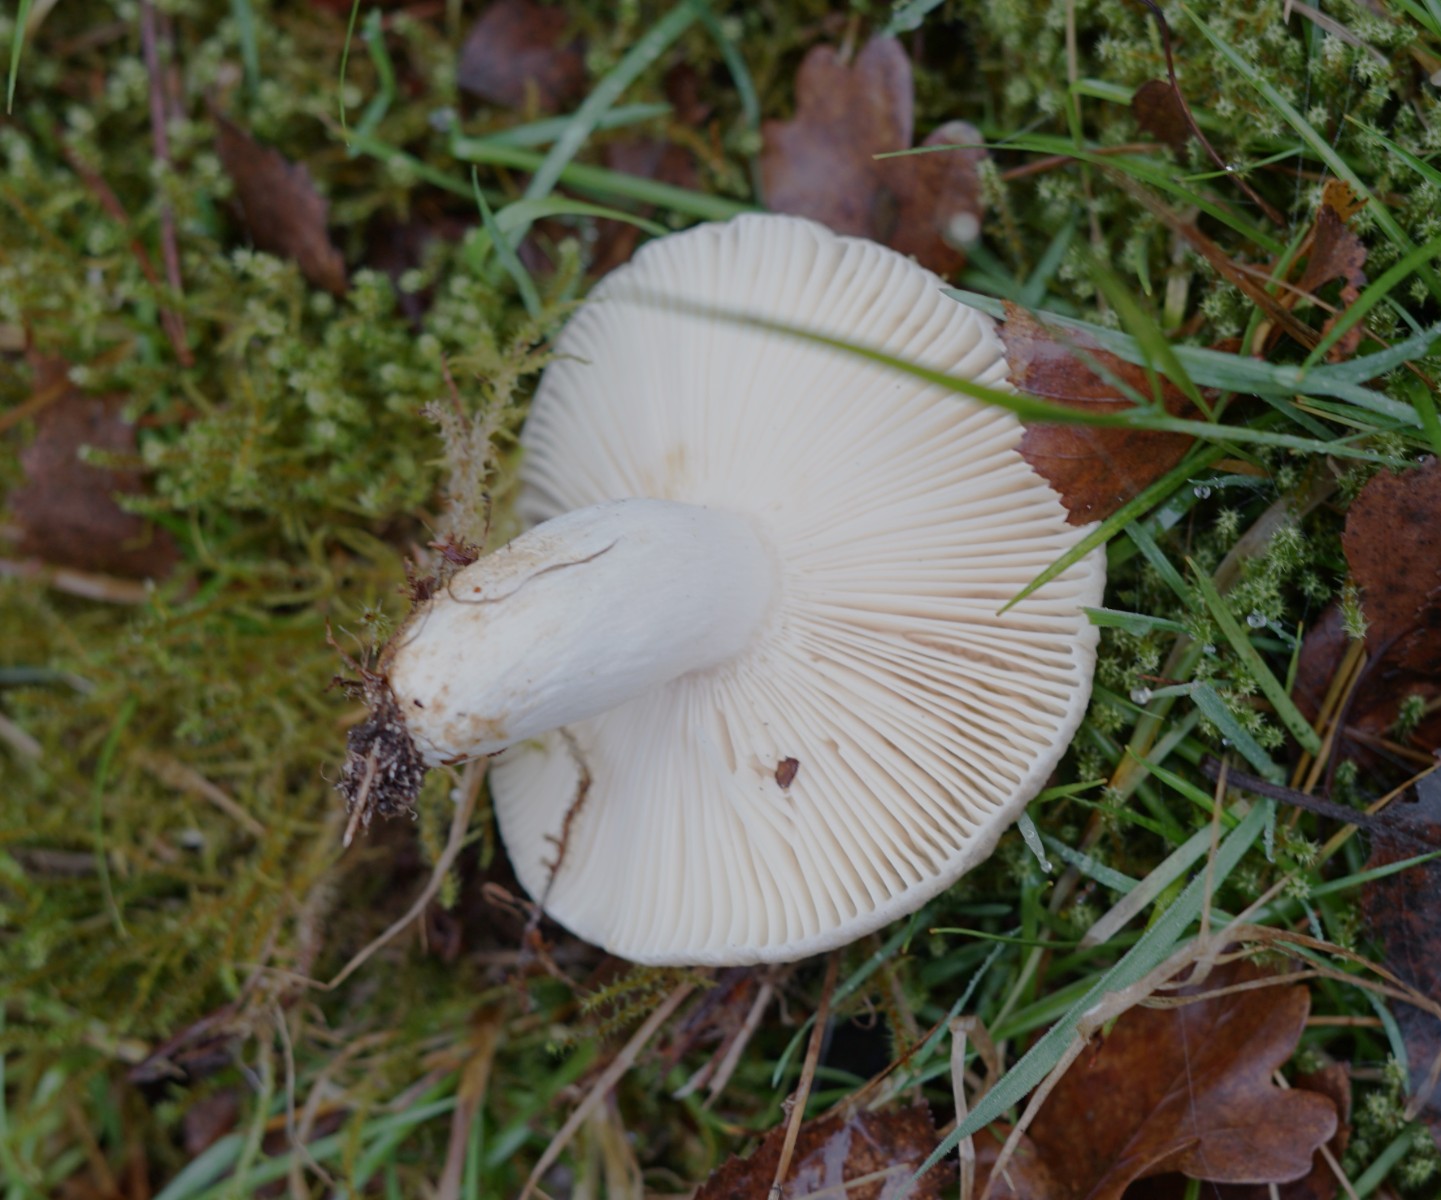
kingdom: Fungi
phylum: Basidiomycota
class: Agaricomycetes
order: Russulales
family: Russulaceae
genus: Russula
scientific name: Russula
